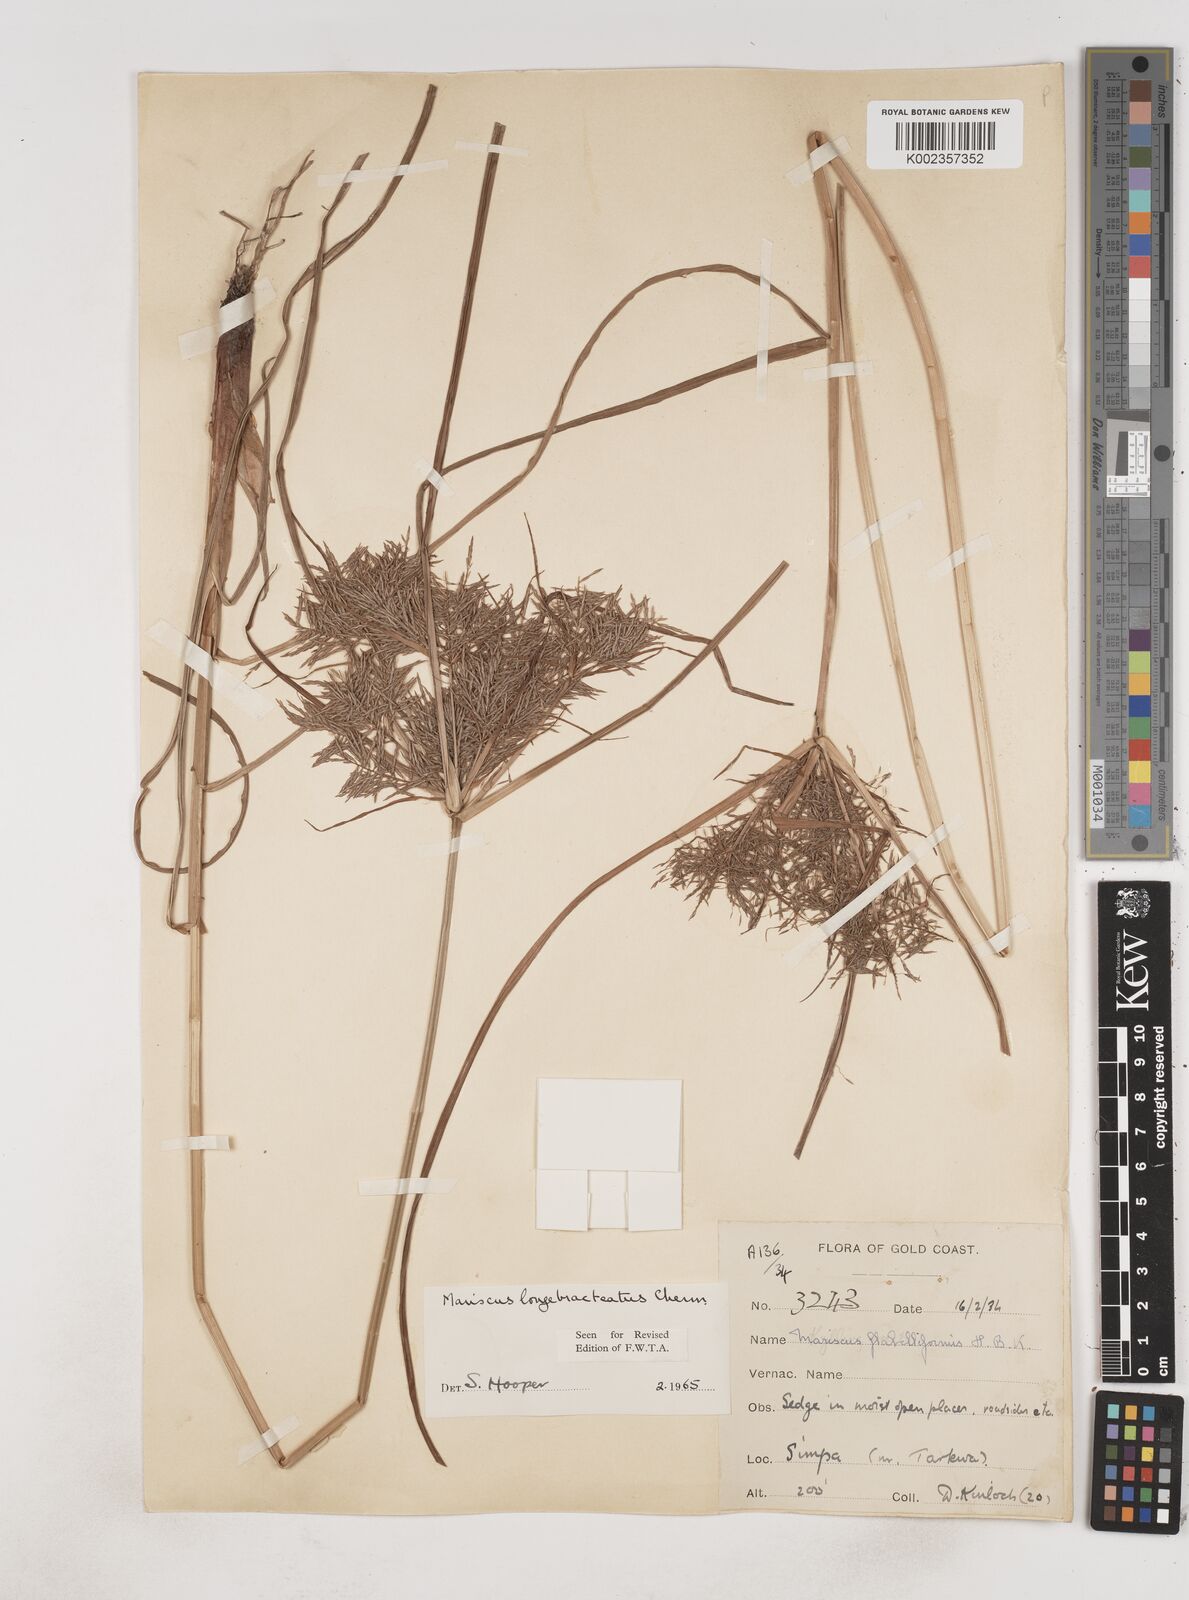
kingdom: Plantae
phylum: Tracheophyta
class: Liliopsida
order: Poales
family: Cyperaceae
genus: Cyperus
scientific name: Cyperus distans
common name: Slender cyperus
